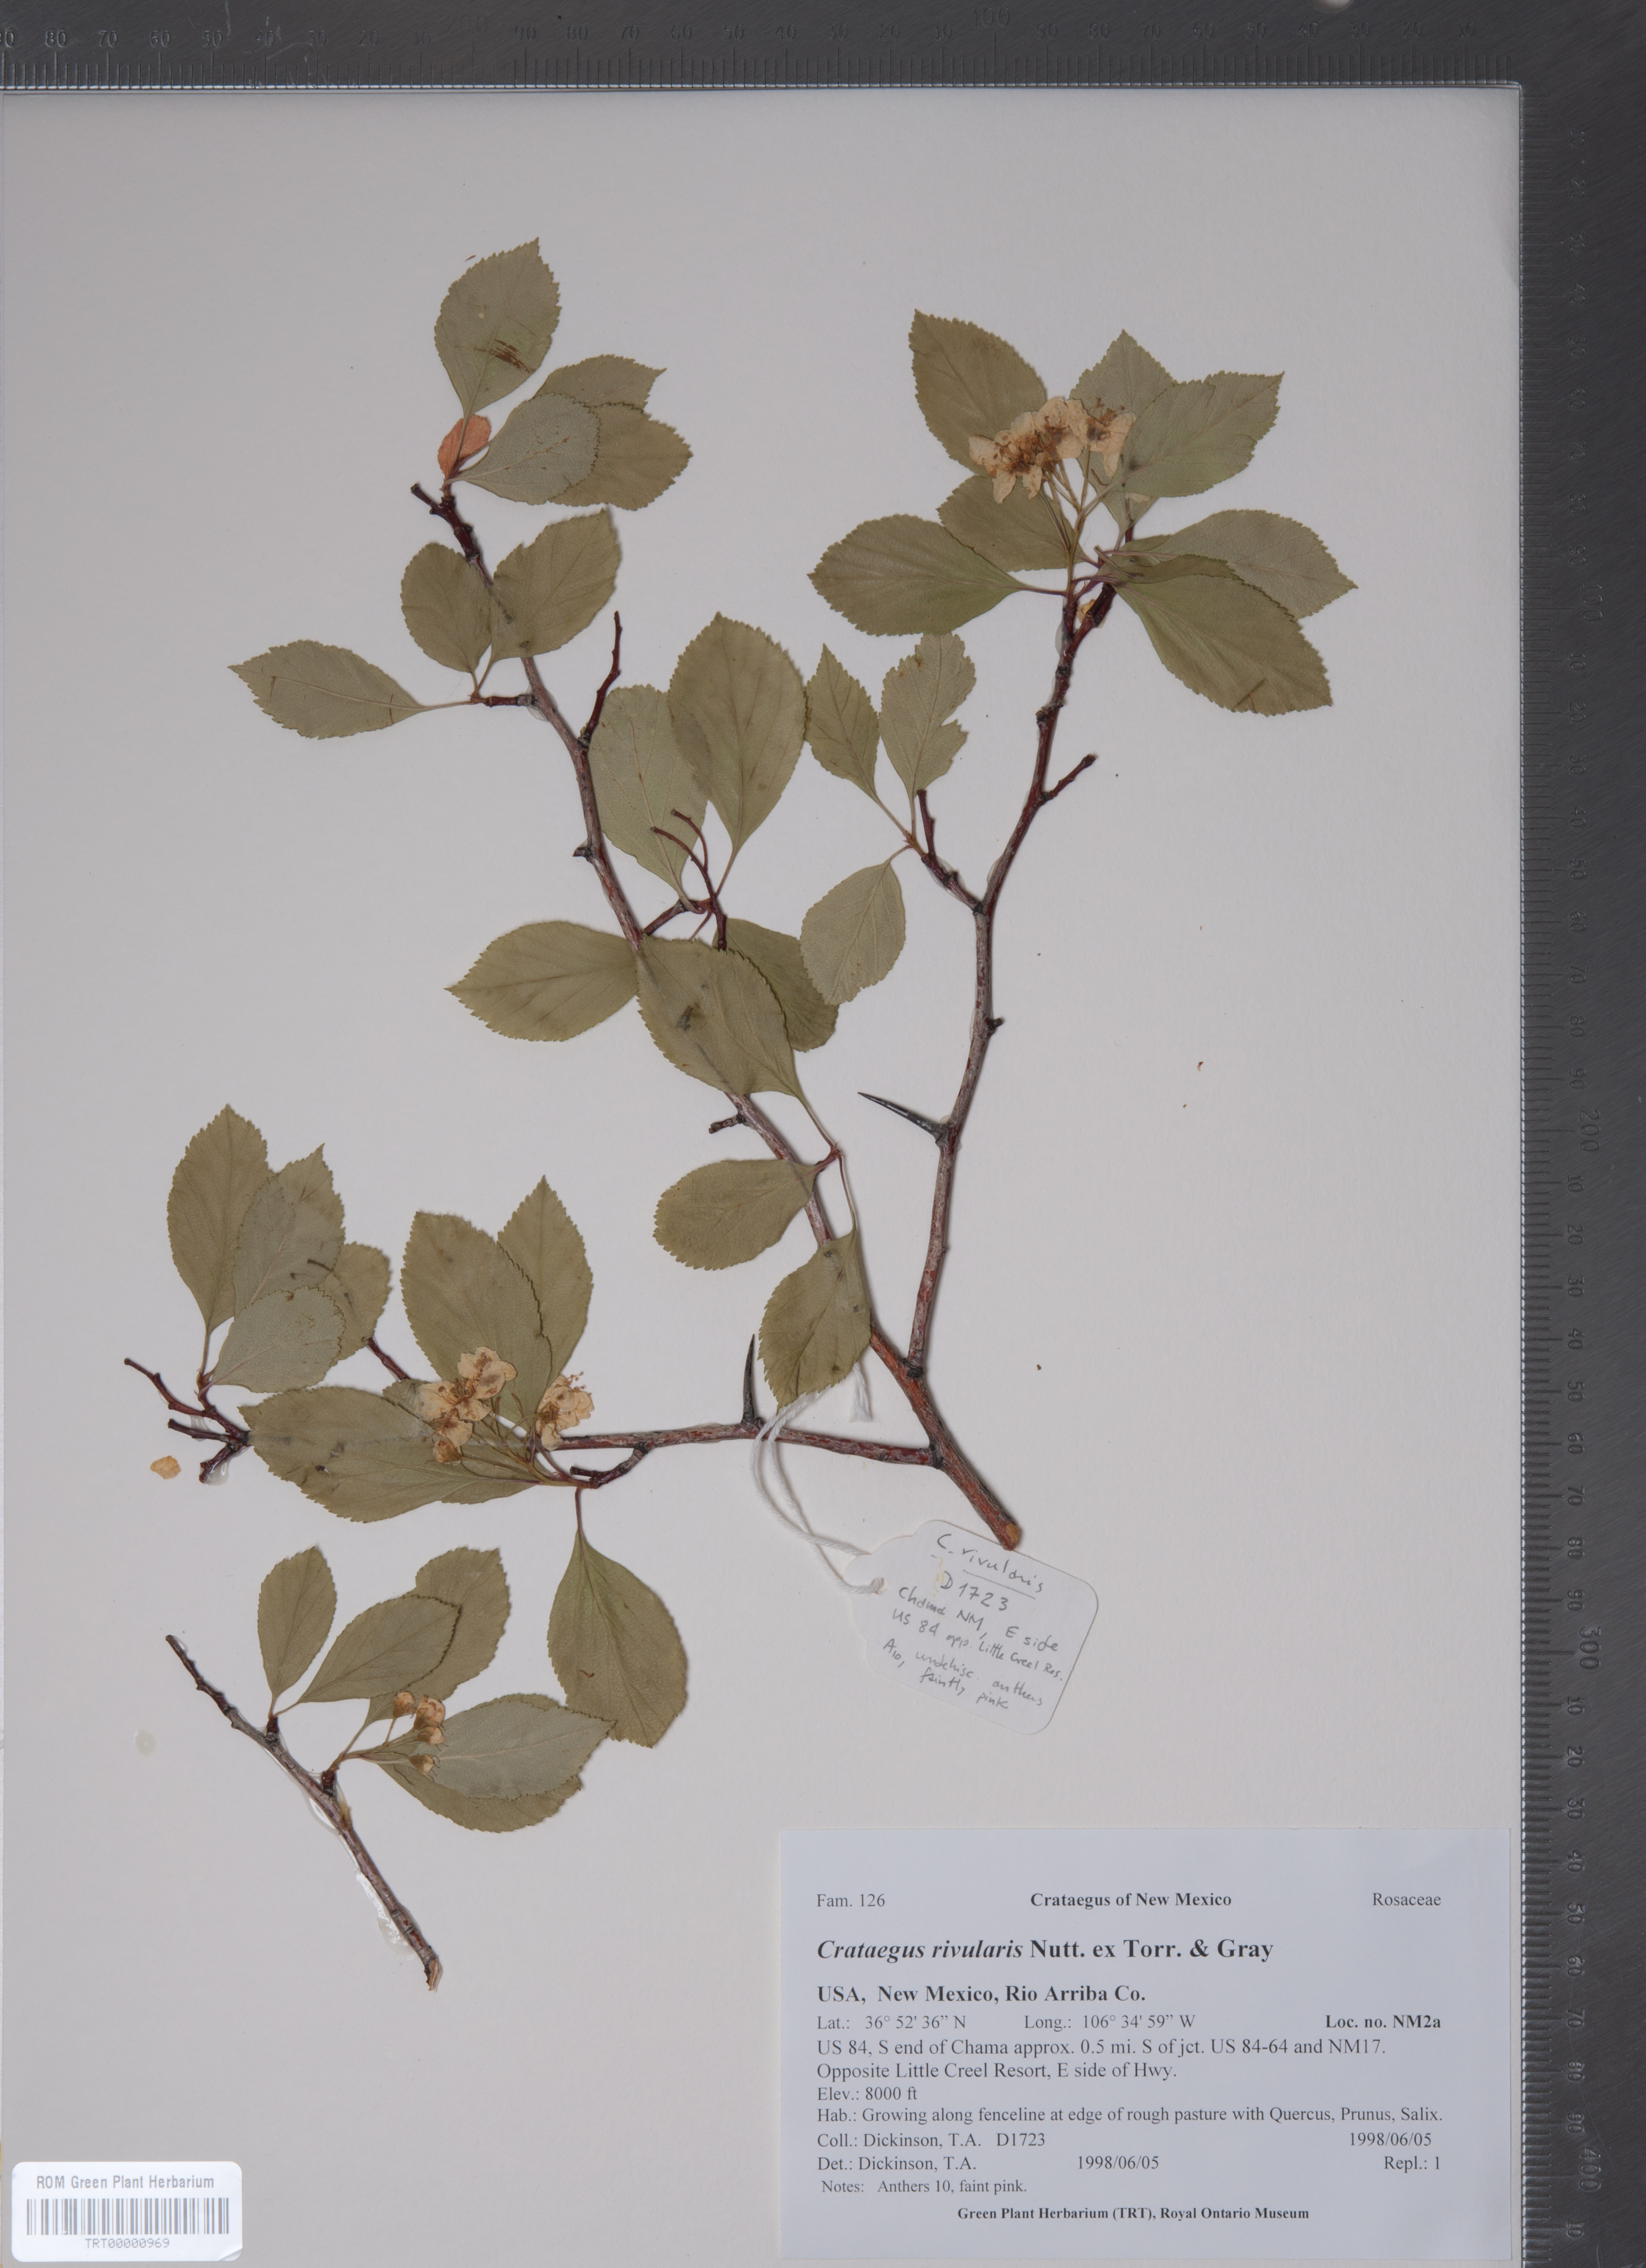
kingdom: Plantae
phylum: Tracheophyta
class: Magnoliopsida
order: Rosales
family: Rosaceae
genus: Crataegus
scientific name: Crataegus rivularis
